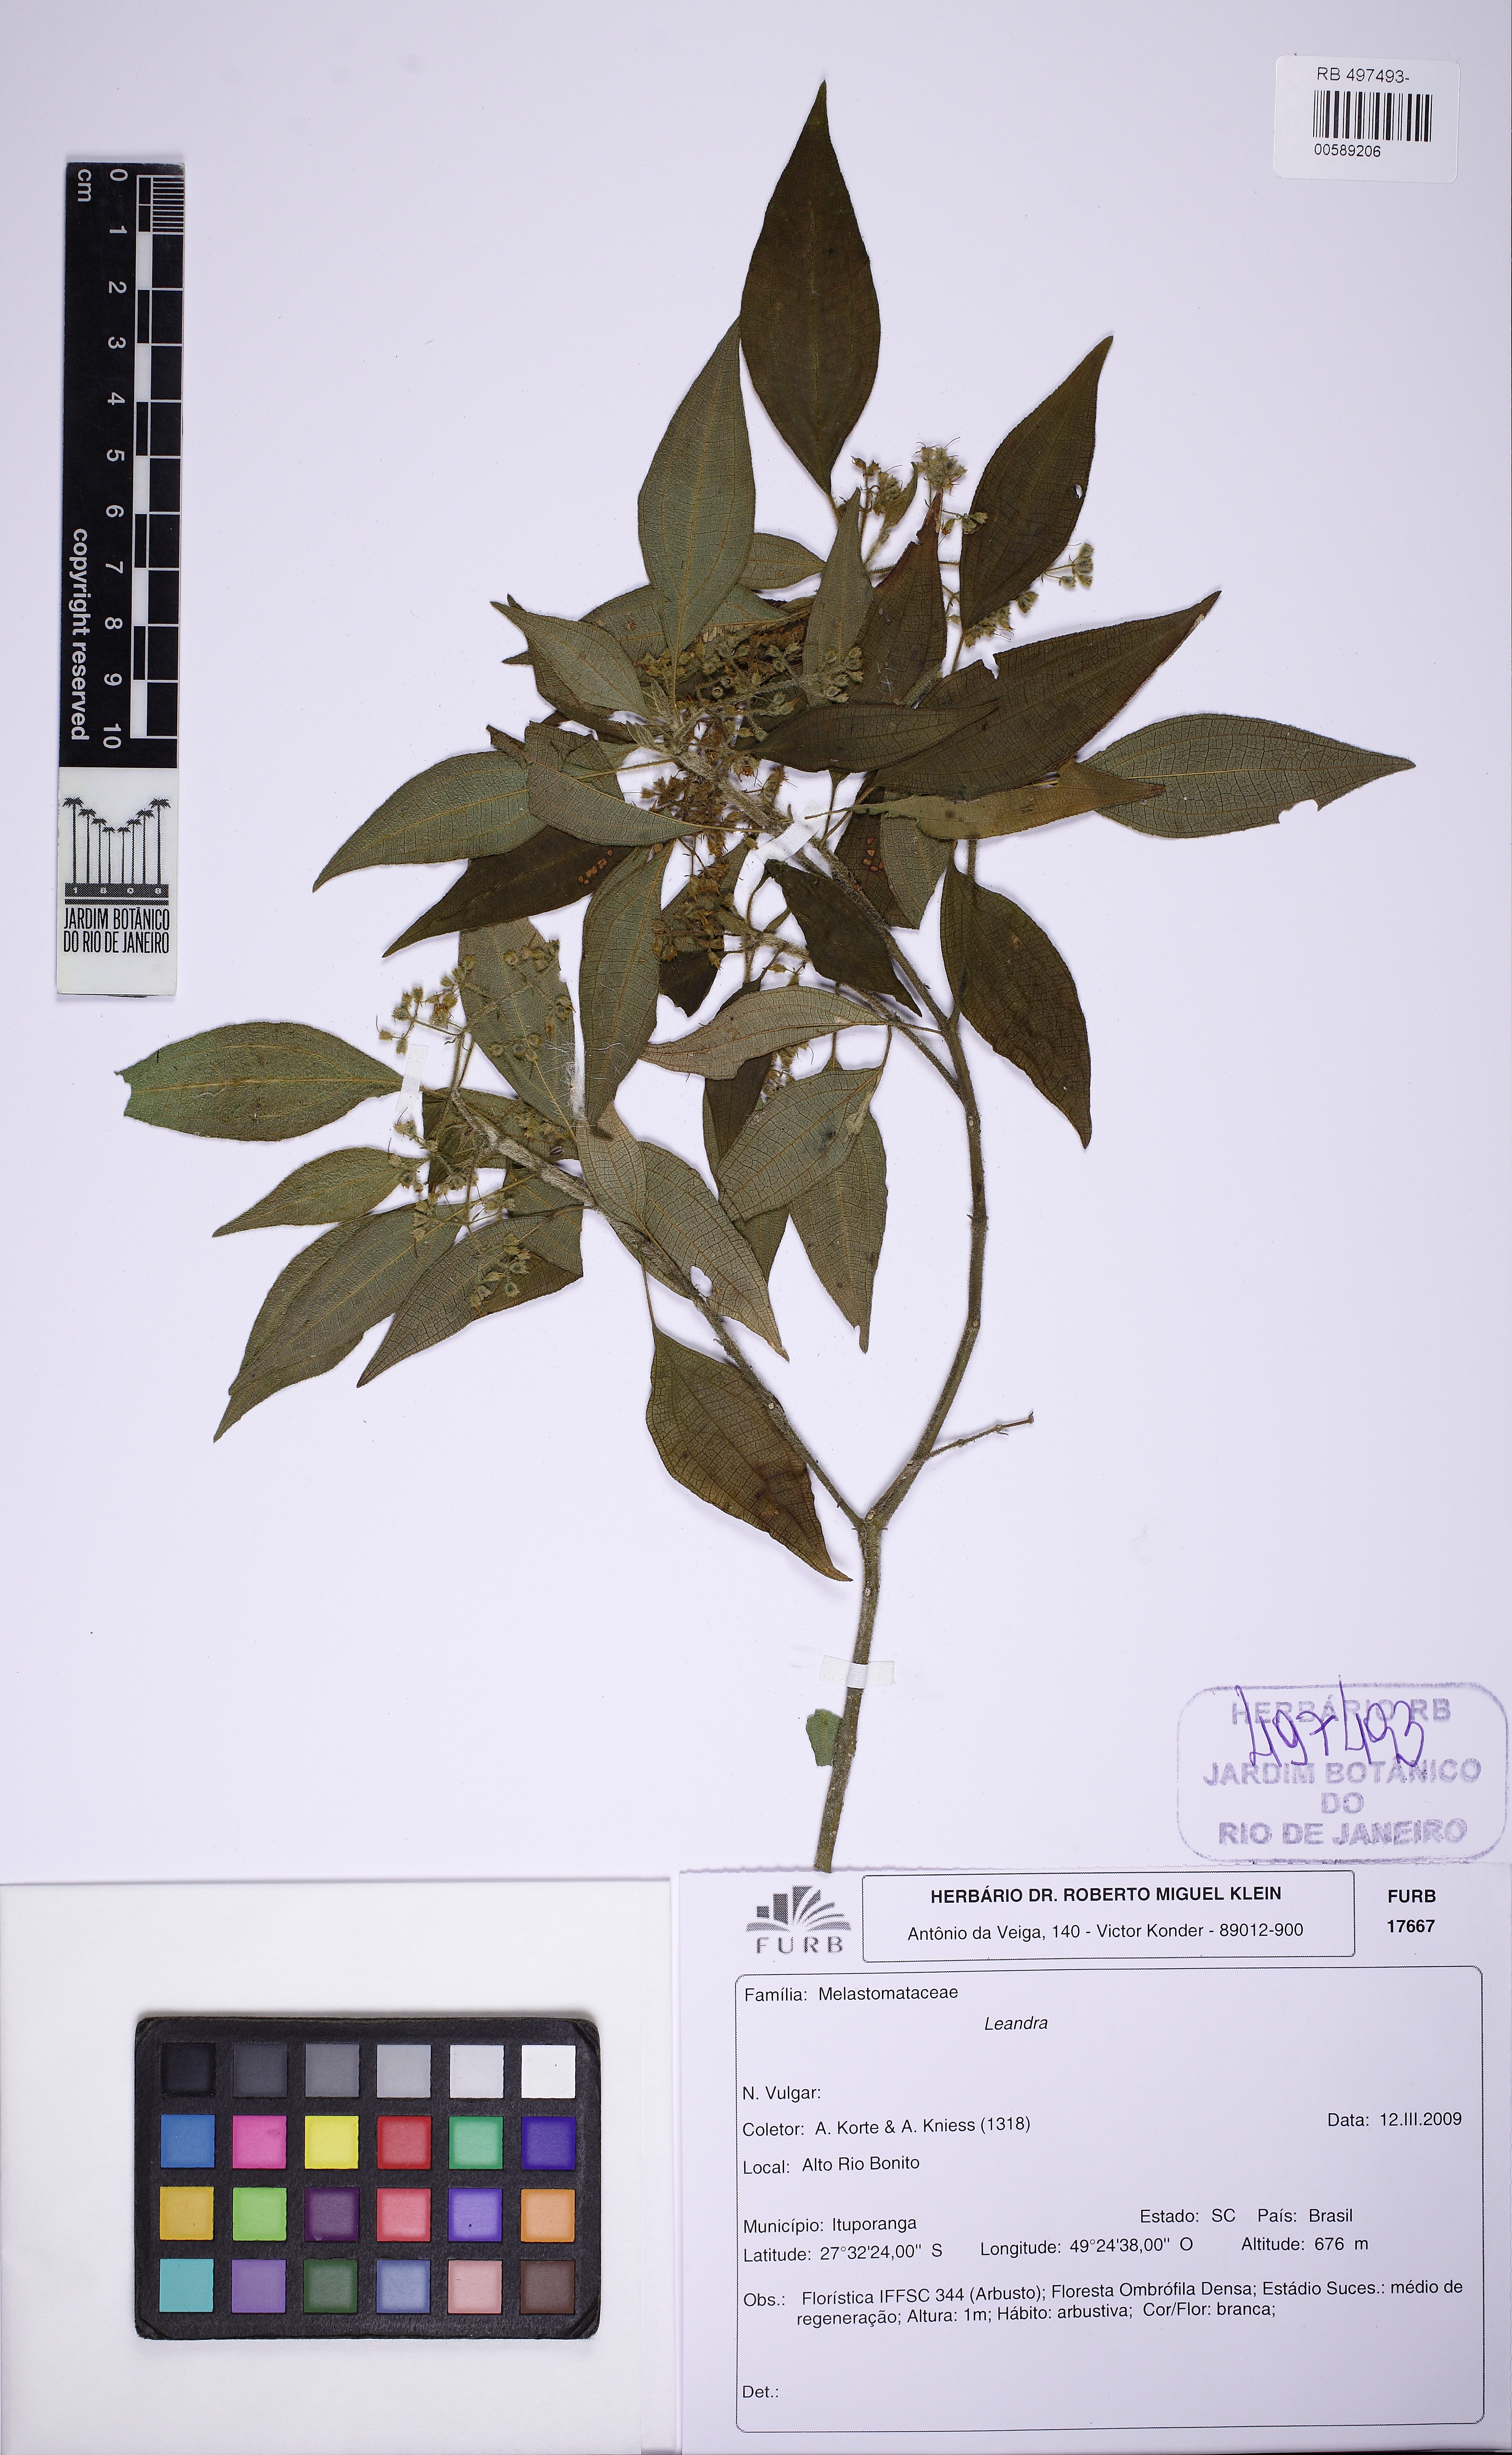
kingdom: Plantae
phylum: Tracheophyta
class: Magnoliopsida
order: Myrtales
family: Melastomataceae
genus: Miconia
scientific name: Miconia
